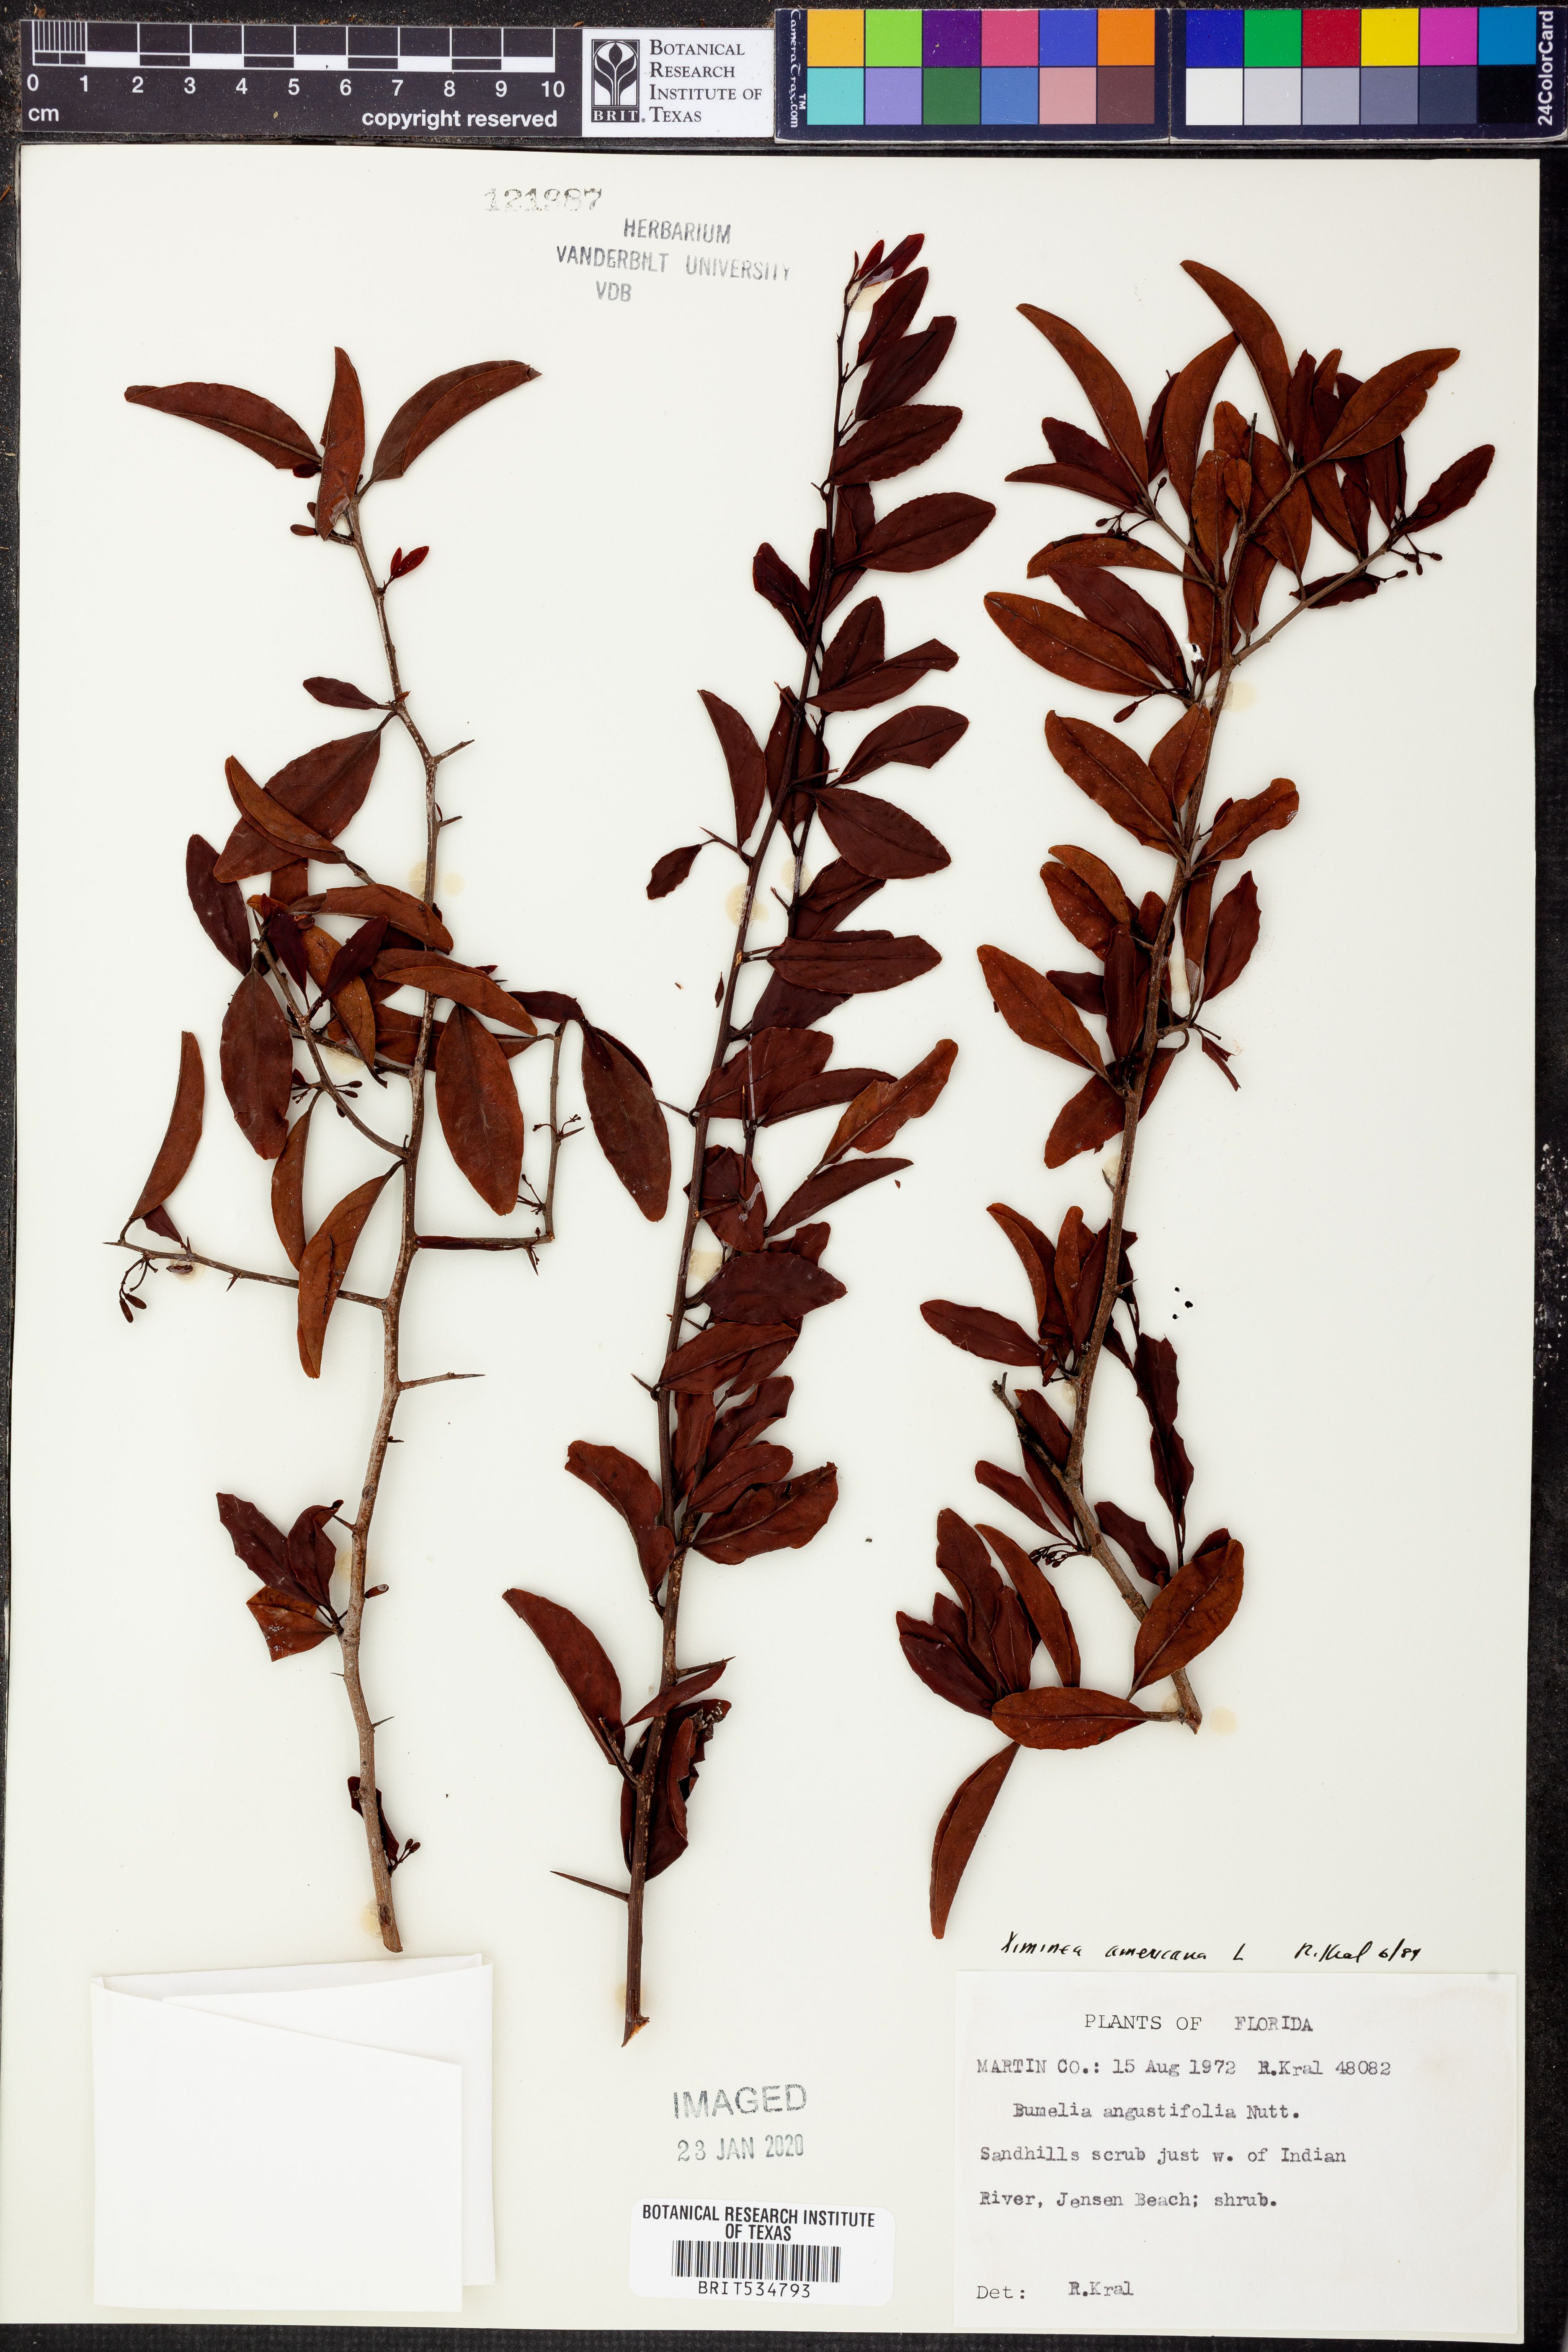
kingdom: Plantae
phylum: Tracheophyta
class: Magnoliopsida
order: Santalales
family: Ximeniaceae
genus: Ximenia
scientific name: Ximenia americana
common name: Tallowwood
